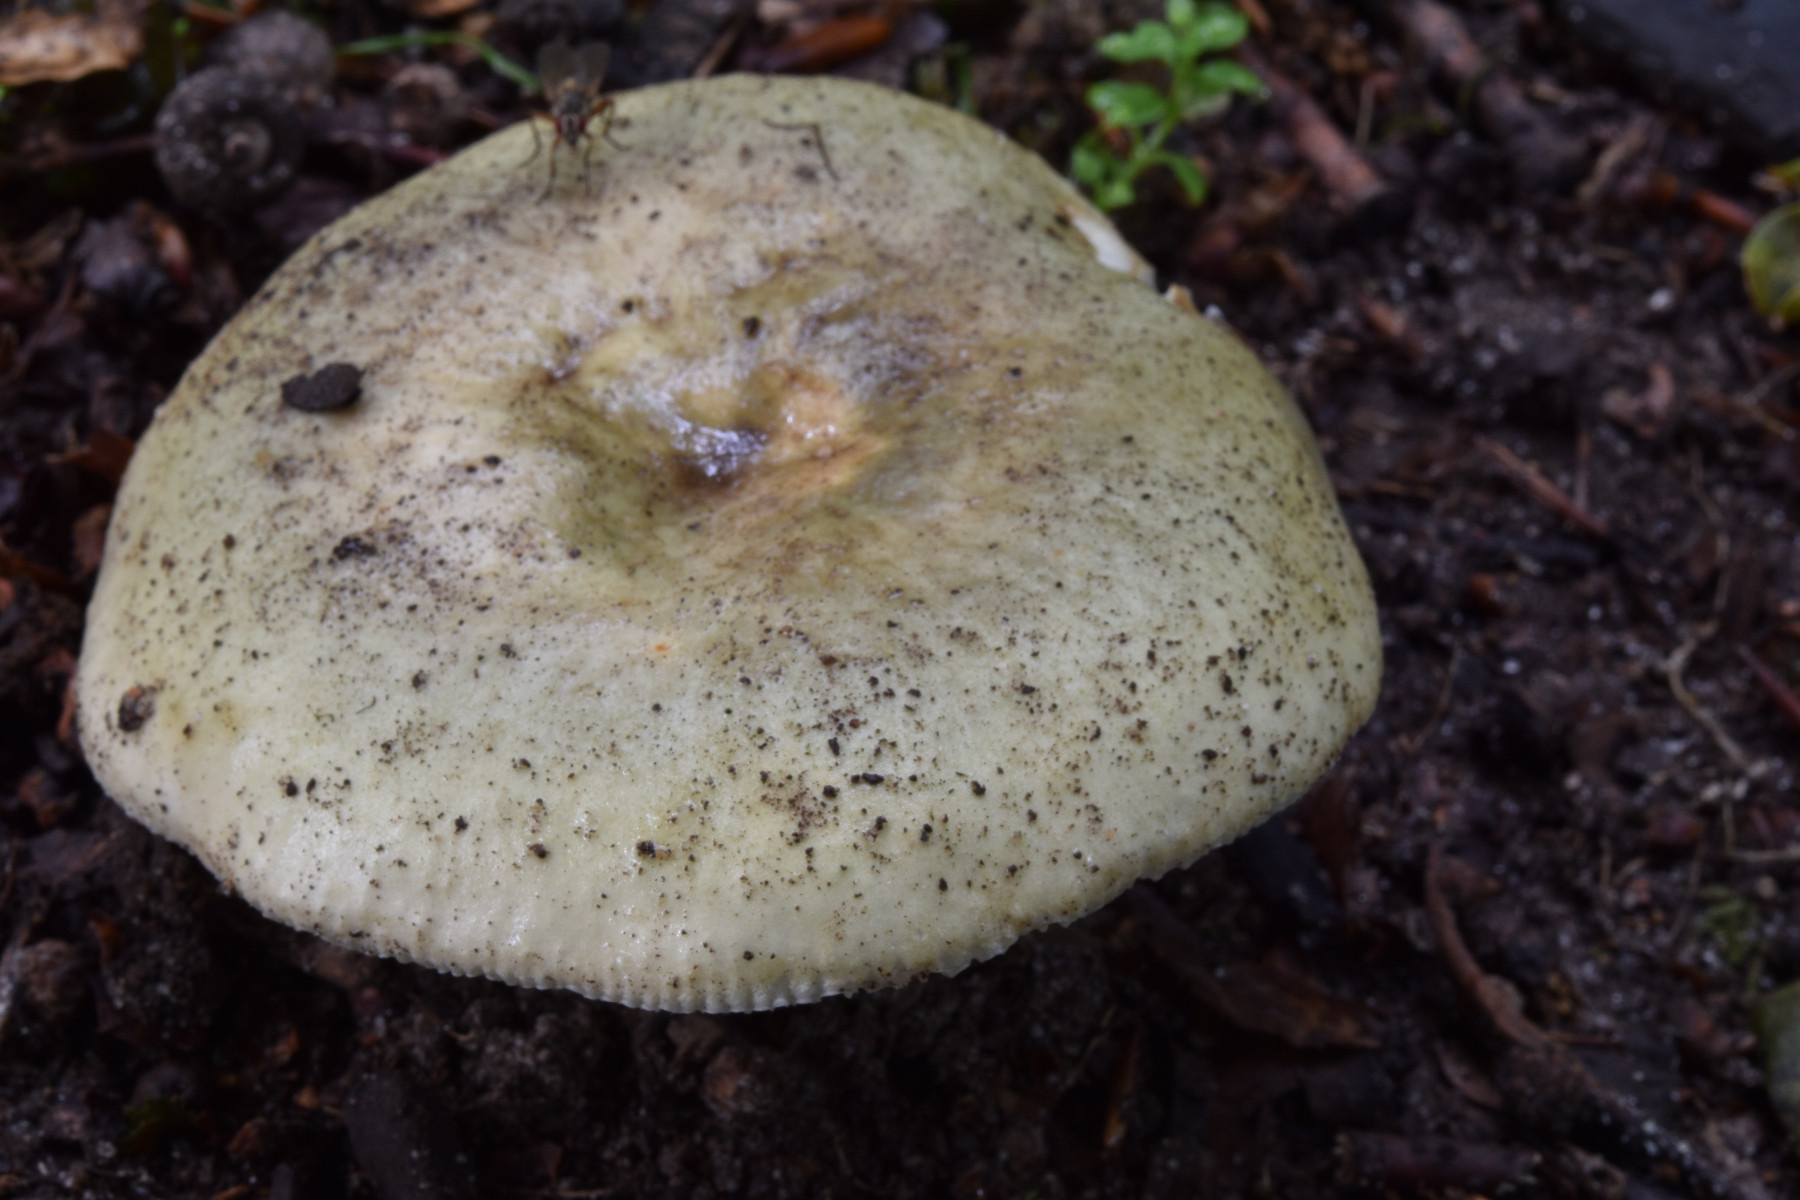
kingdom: Fungi
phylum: Basidiomycota
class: Agaricomycetes
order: Russulales
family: Russulaceae
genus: Russula
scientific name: Russula
